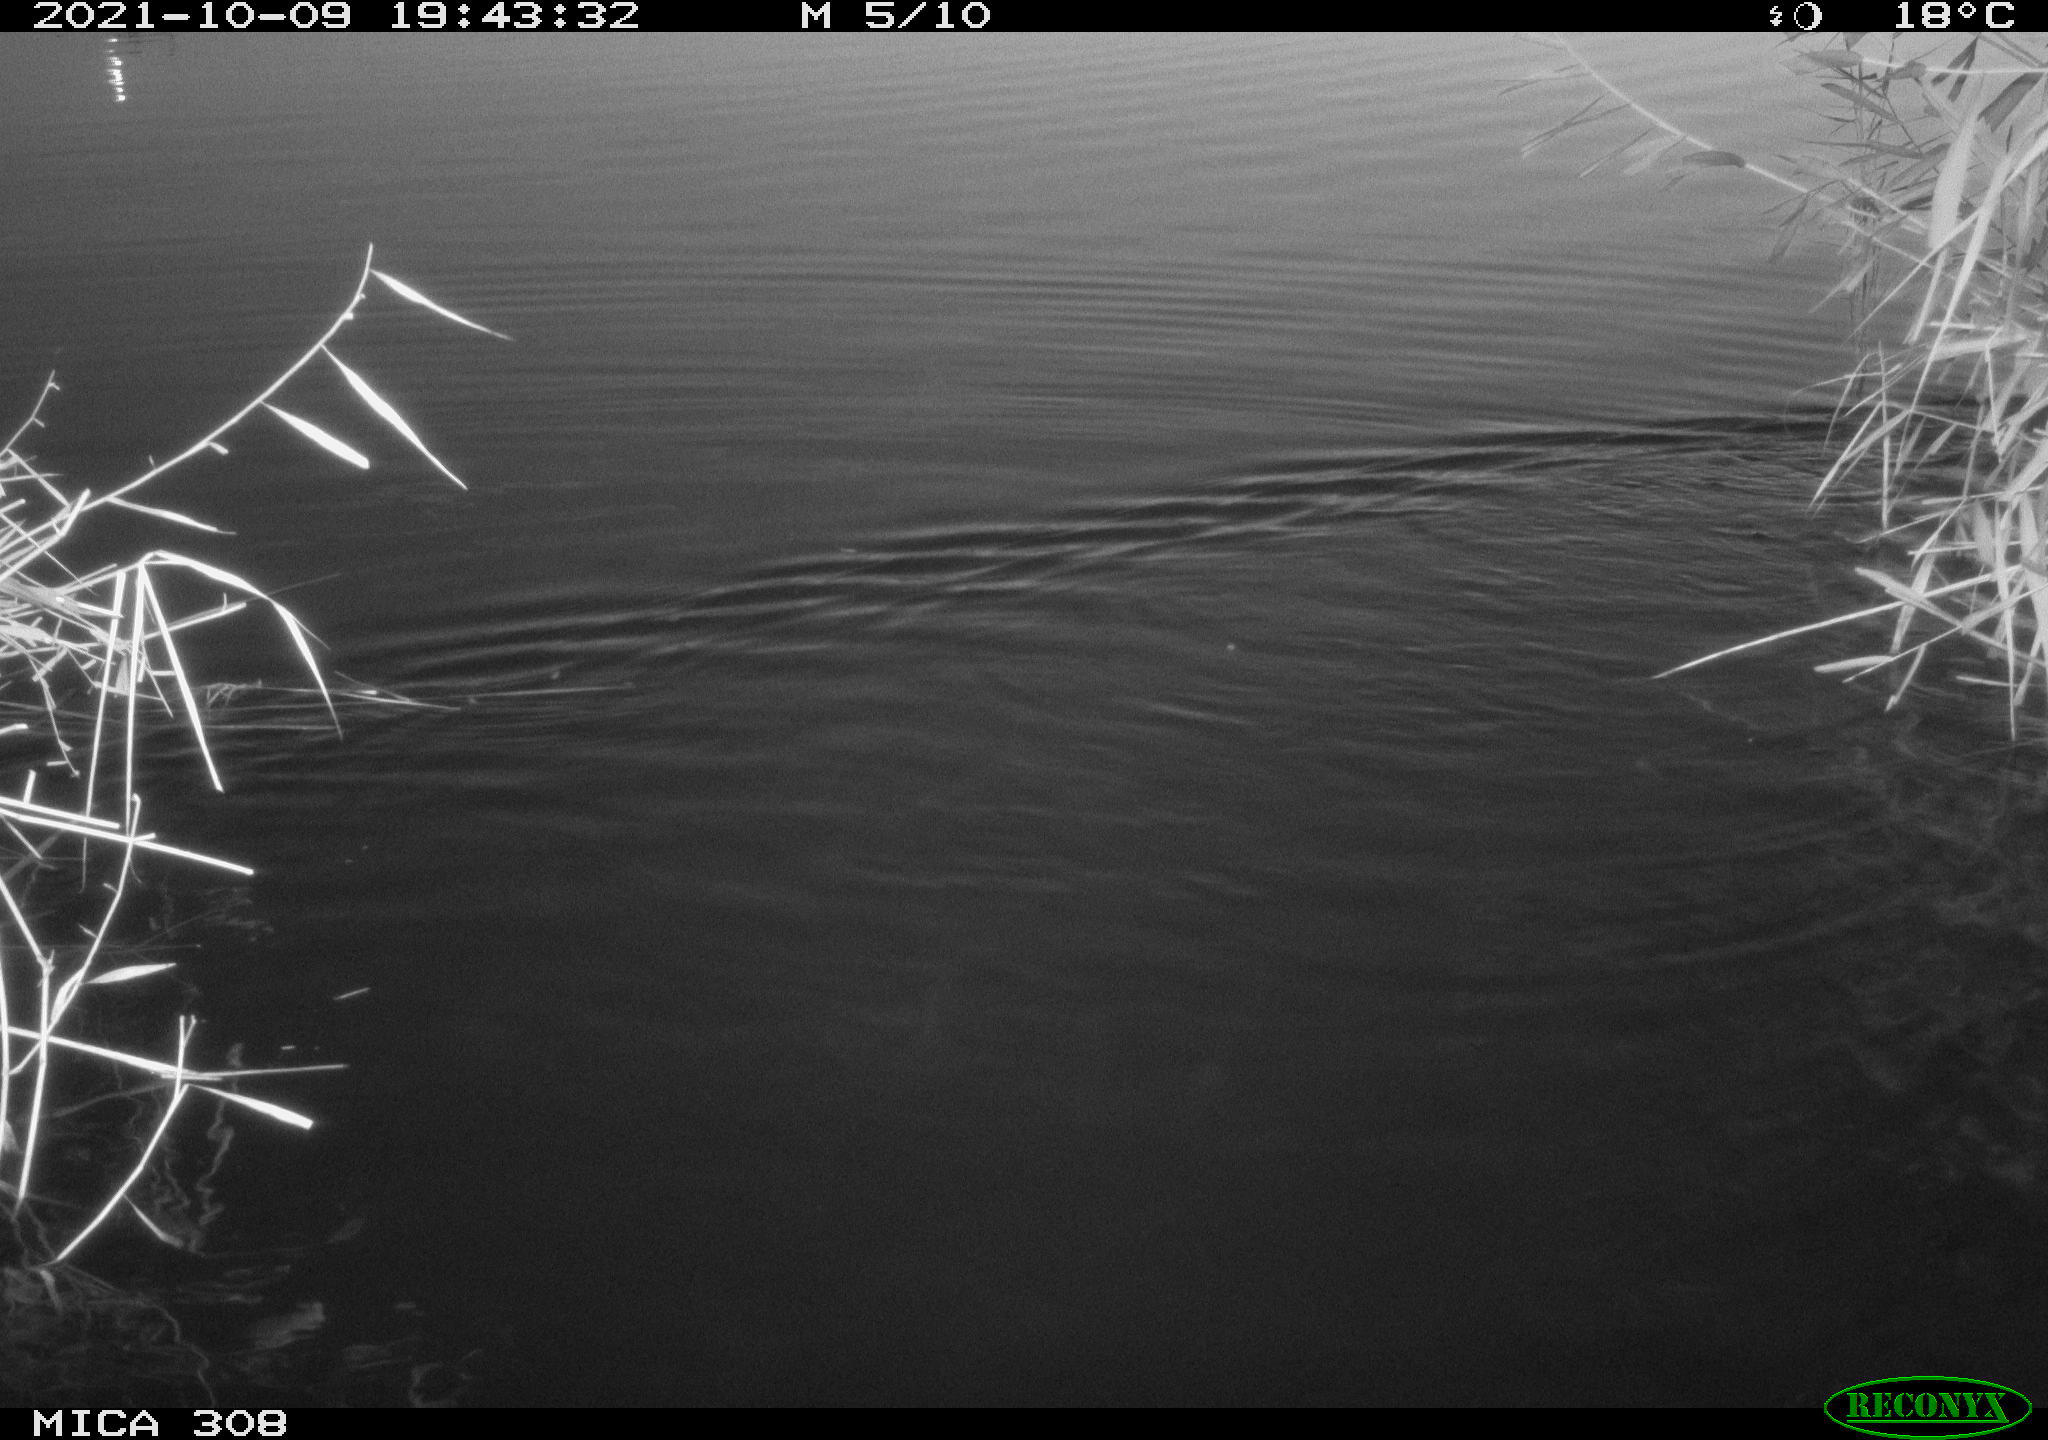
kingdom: Animalia
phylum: Chordata
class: Mammalia
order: Rodentia
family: Cricetidae
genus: Ondatra
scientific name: Ondatra zibethicus
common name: Muskrat
